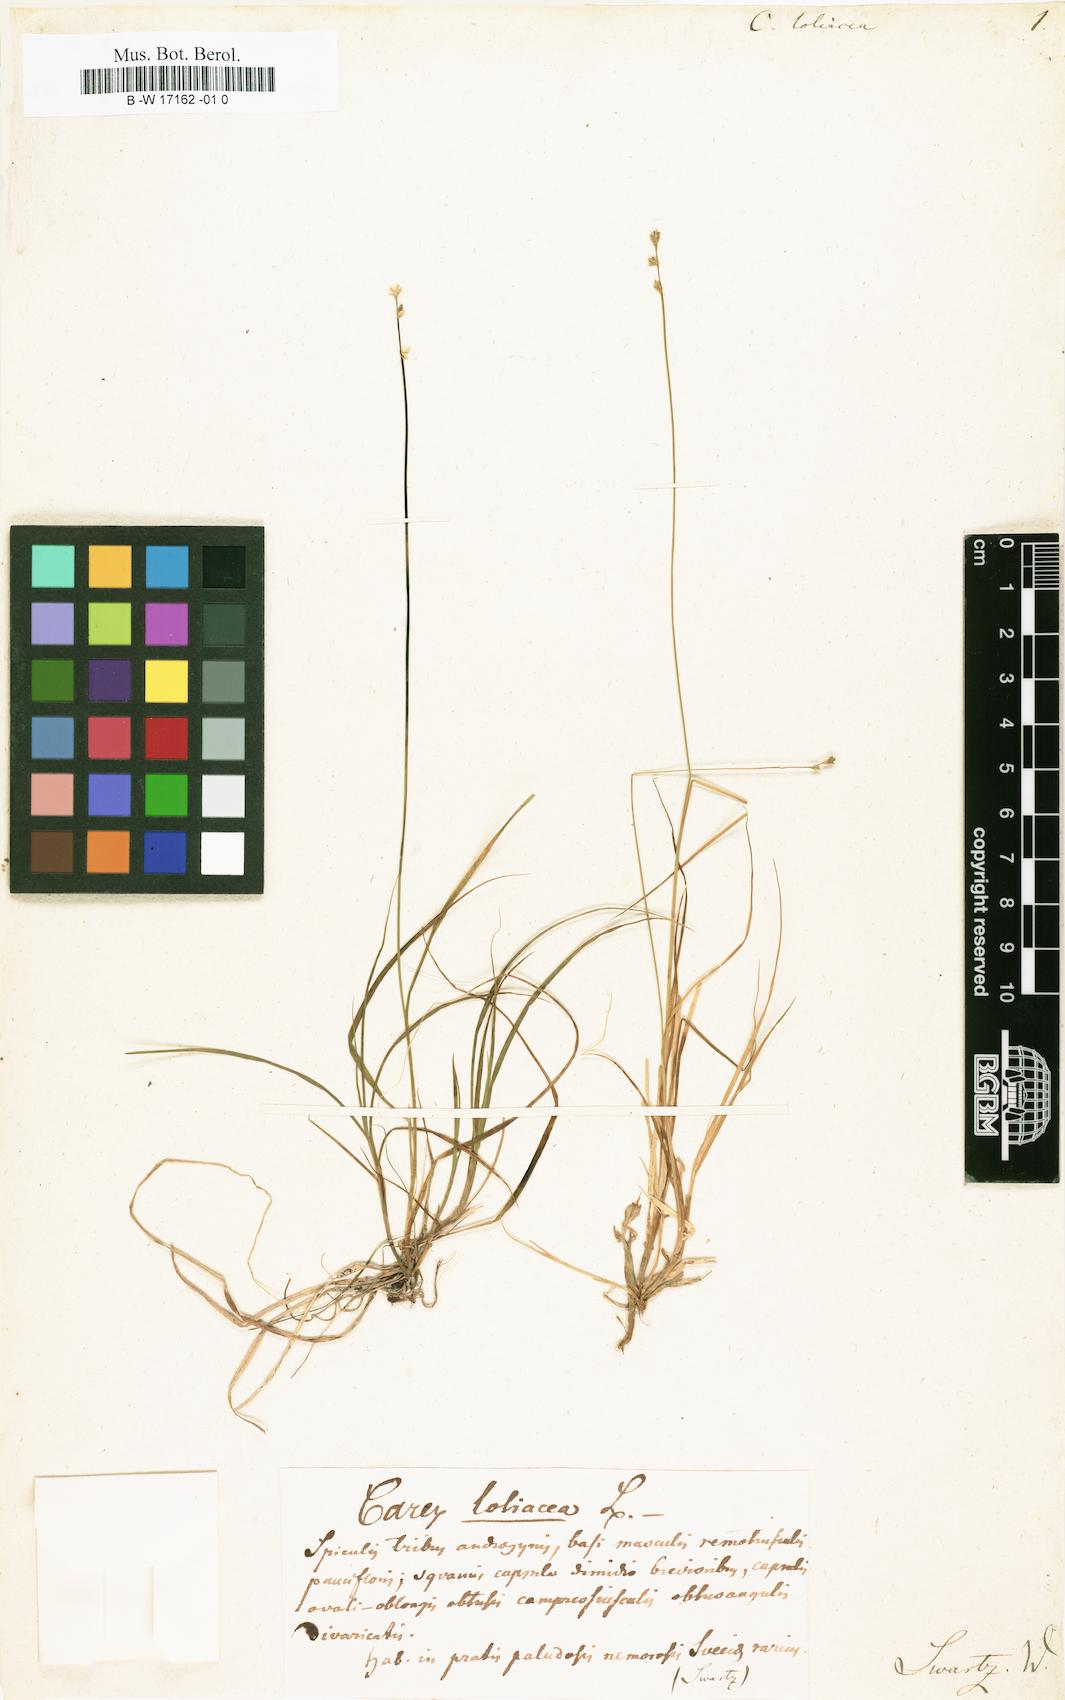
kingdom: Plantae
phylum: Tracheophyta
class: Liliopsida
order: Poales
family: Cyperaceae
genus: Carex
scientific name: Carex loliacea
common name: Ryegrass sedge
